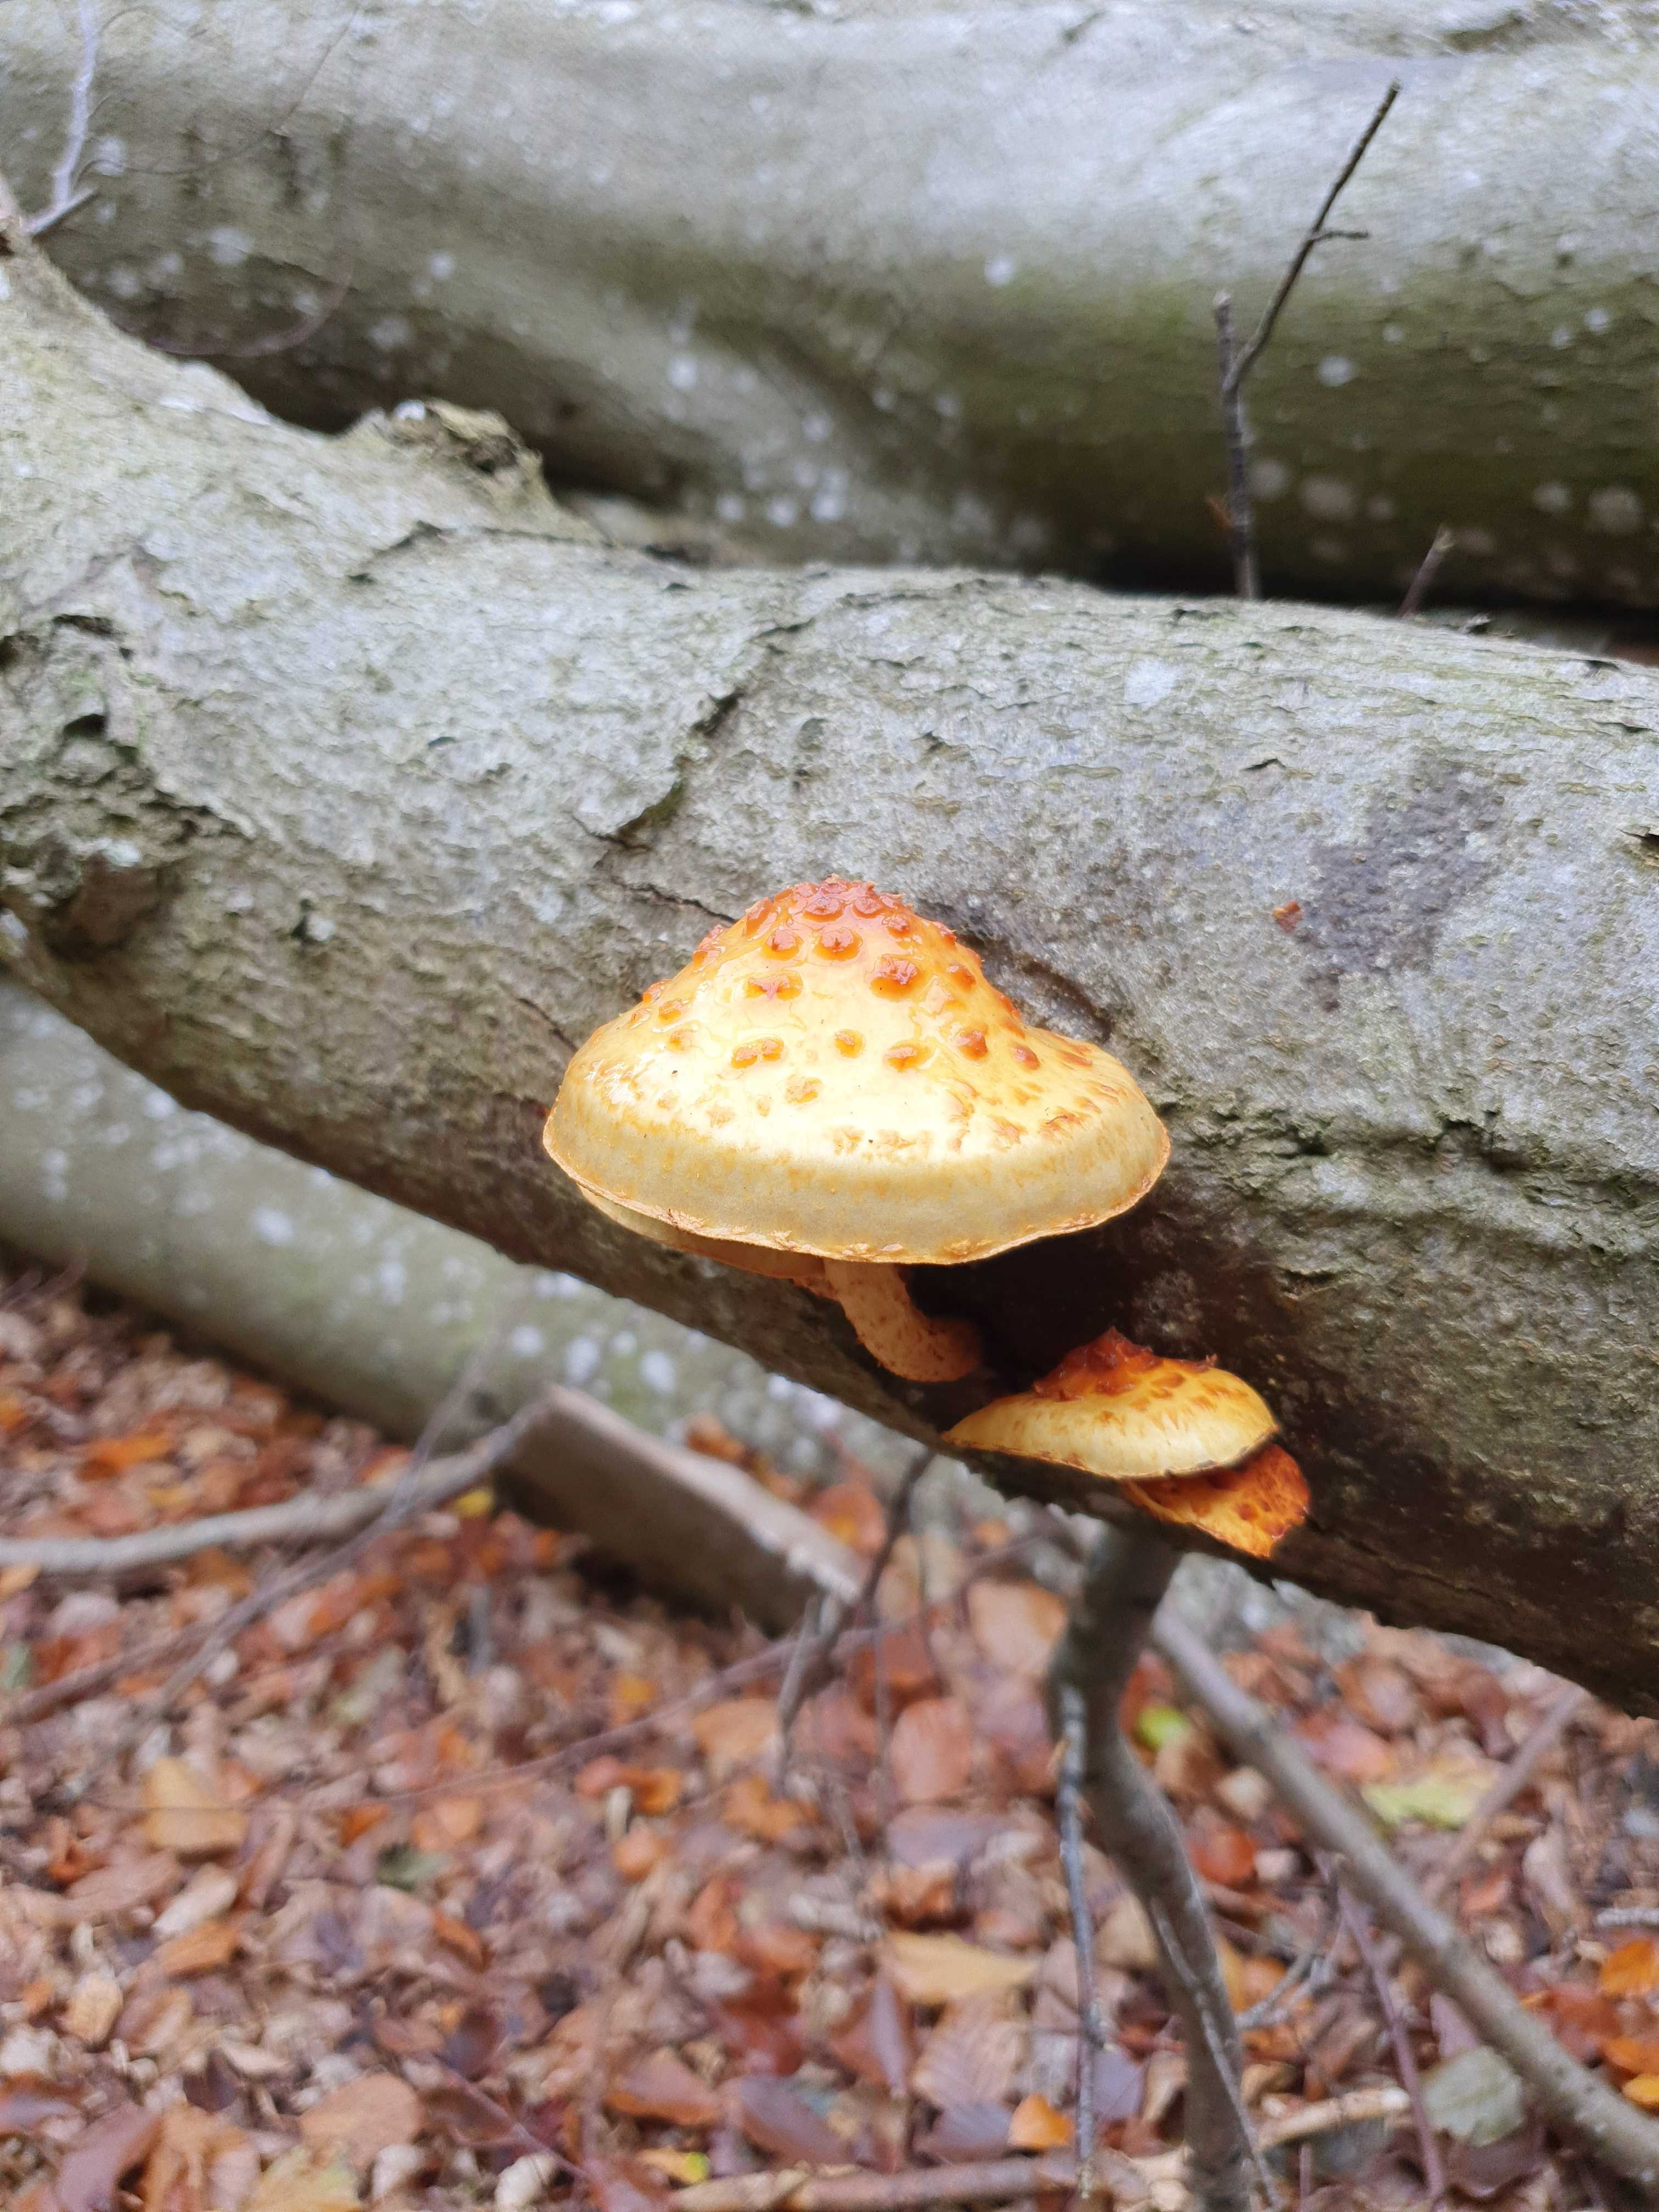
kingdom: Fungi
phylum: Basidiomycota
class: Agaricomycetes
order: Agaricales
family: Strophariaceae
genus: Pholiota
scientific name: Pholiota adiposa
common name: højtsiddende skælhat
